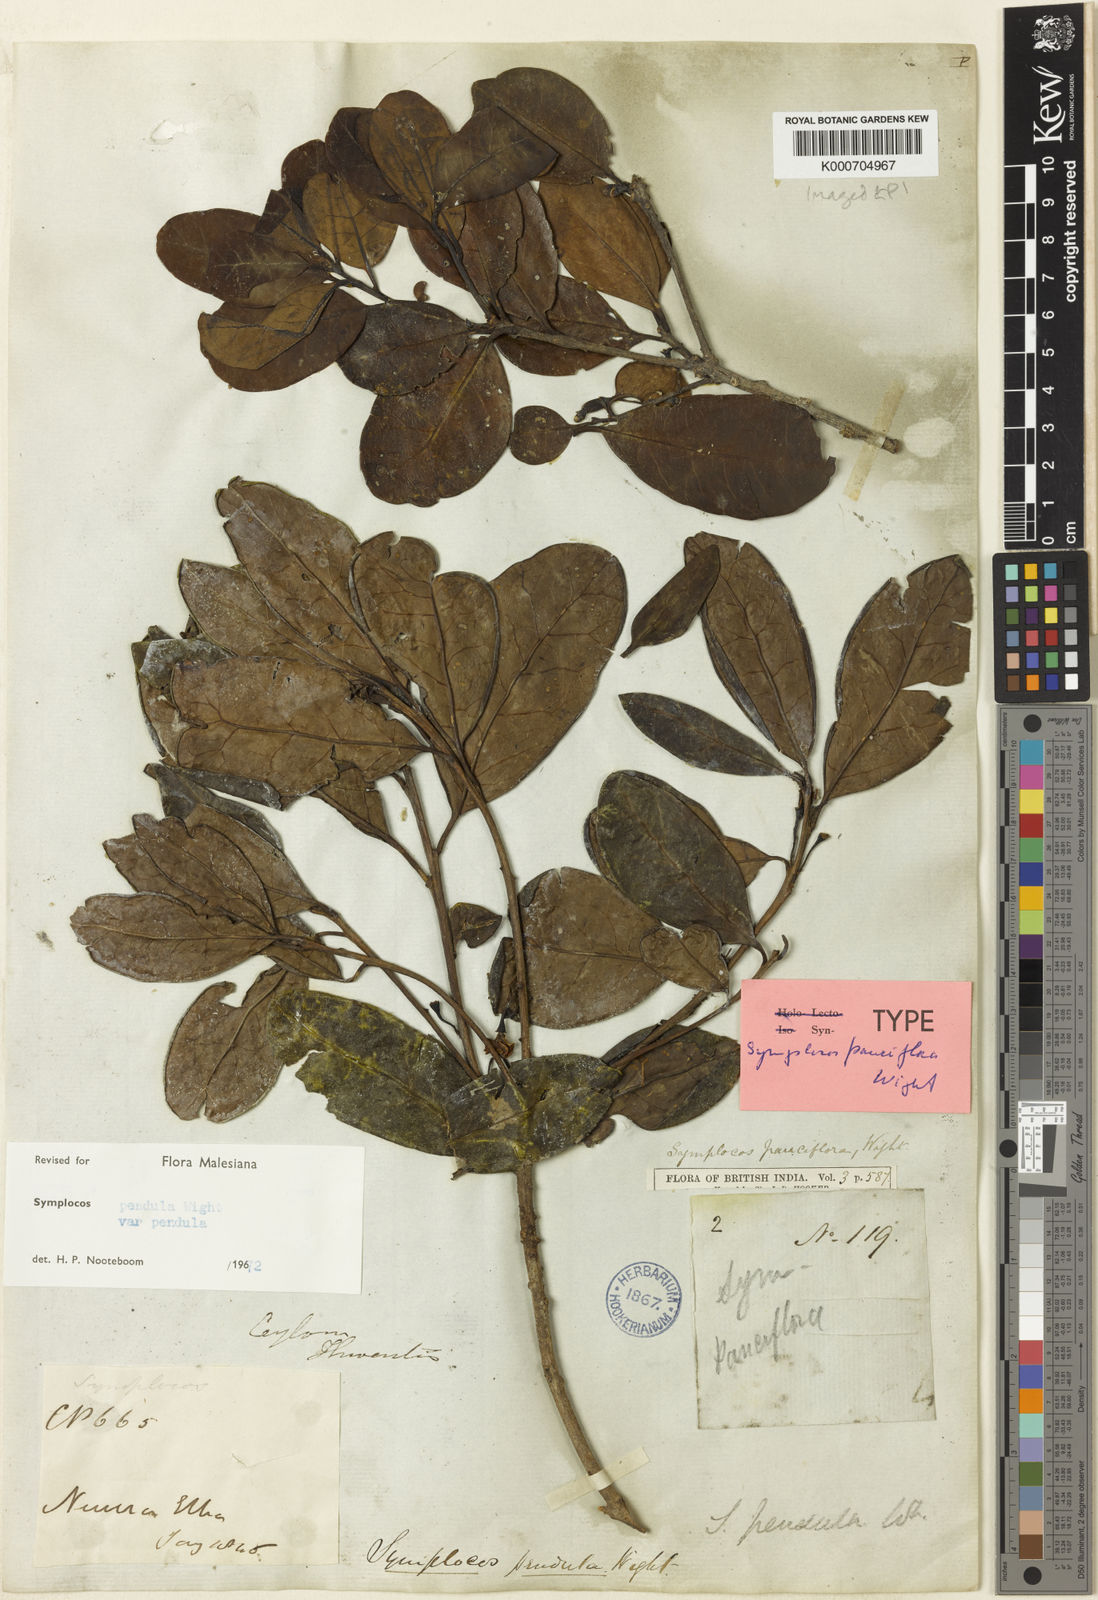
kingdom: Plantae
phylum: Tracheophyta
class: Magnoliopsida
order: Ericales
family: Symplocaceae
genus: Symplocos
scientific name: Symplocos pendula
